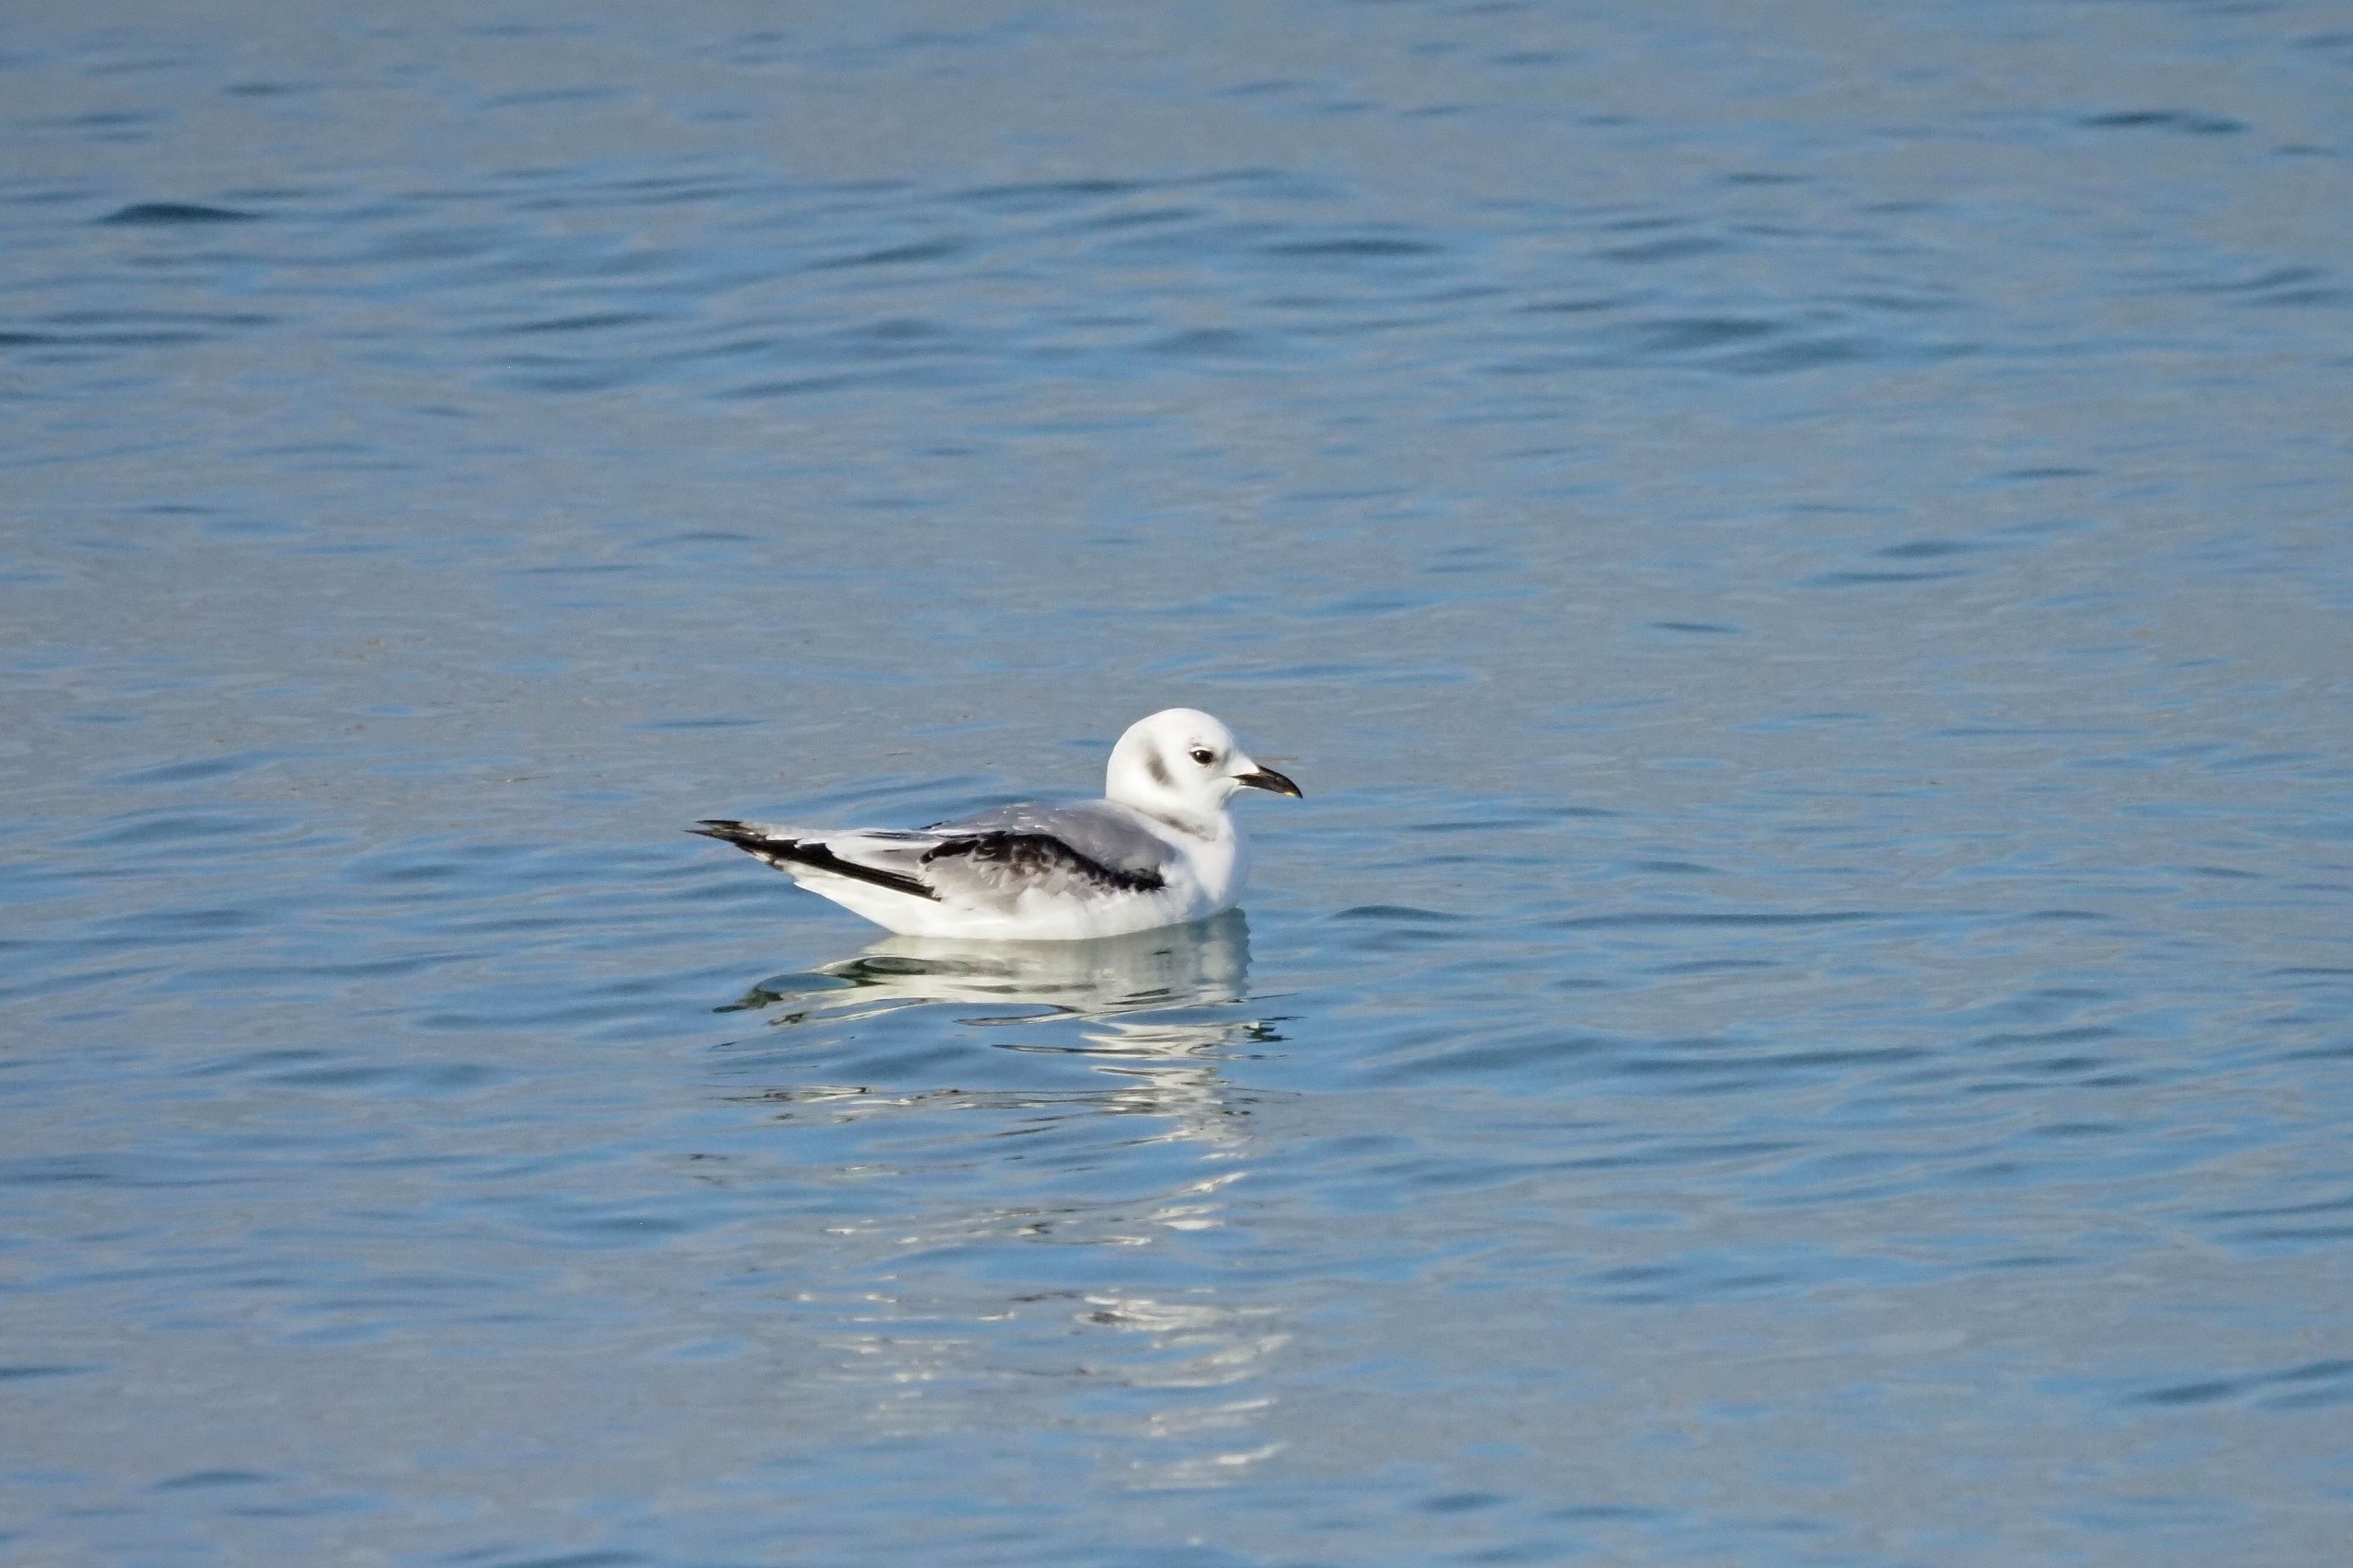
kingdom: Animalia
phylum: Chordata
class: Aves
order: Charadriiformes
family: Laridae
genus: Rissa
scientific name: Rissa tridactyla
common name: Ride
